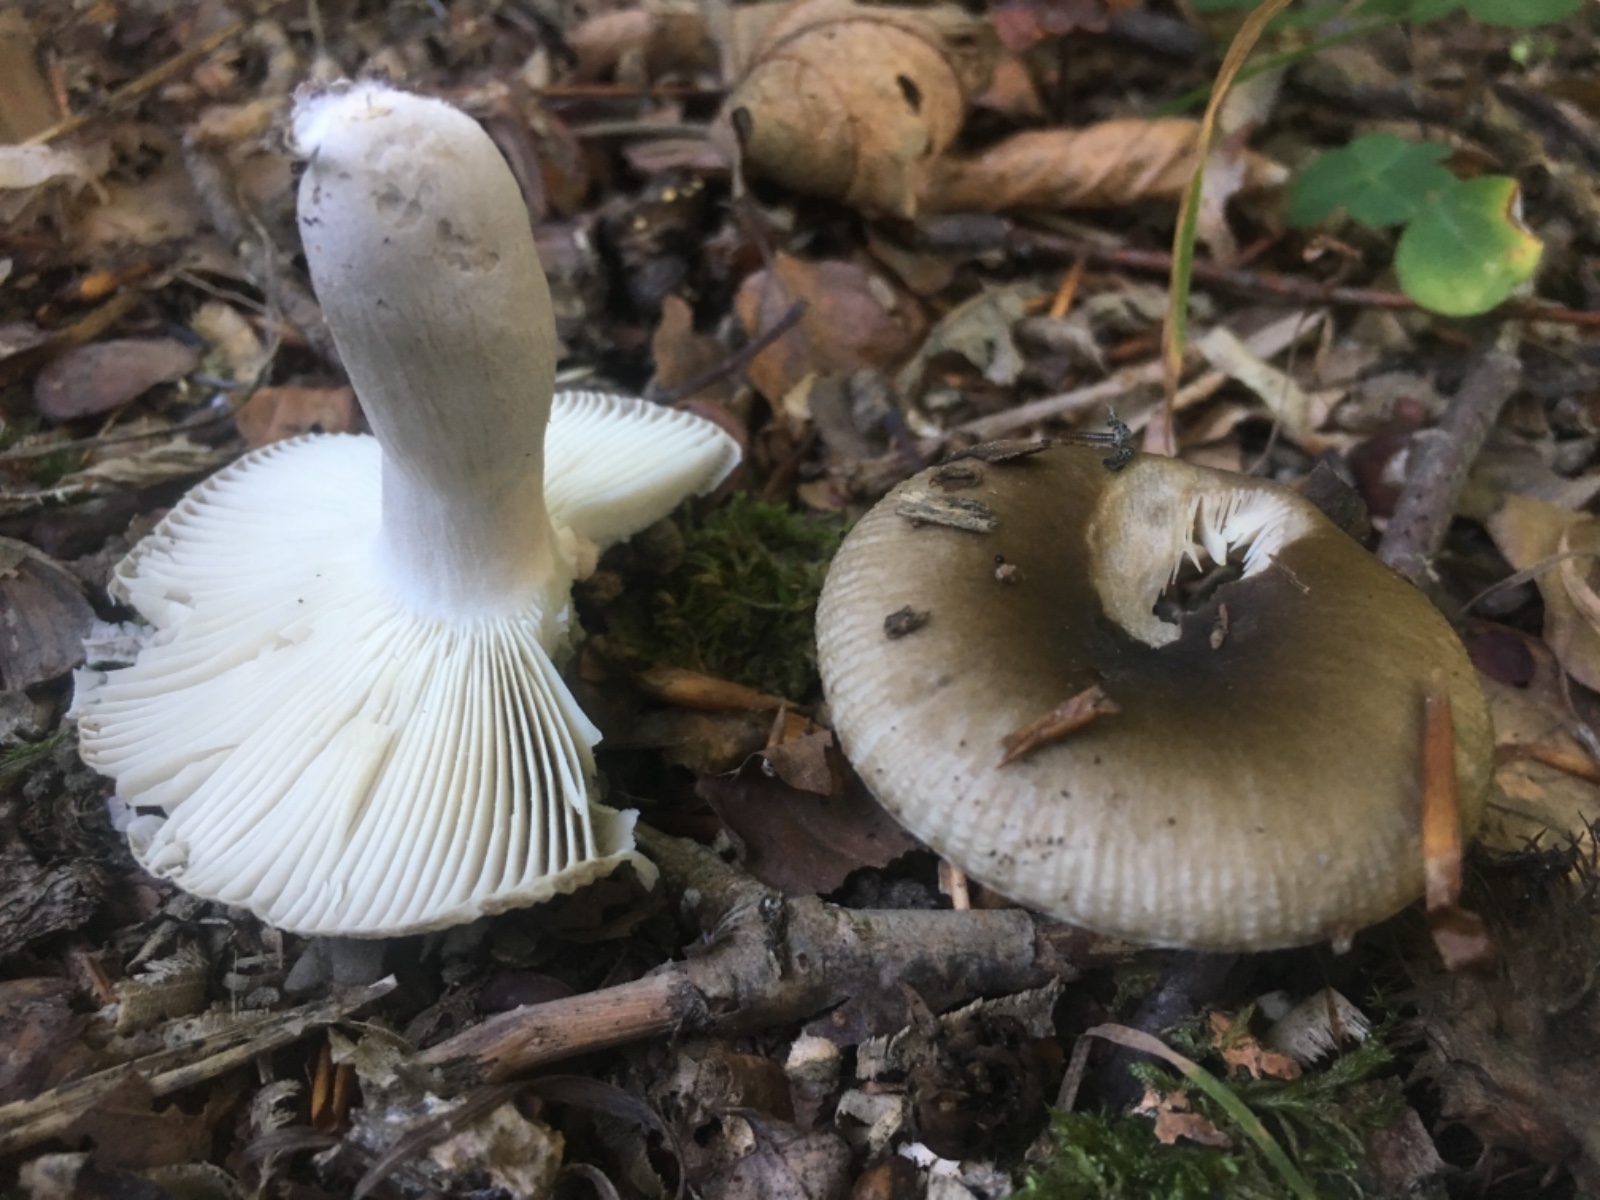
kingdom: Fungi
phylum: Basidiomycota
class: Agaricomycetes
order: Russulales
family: Russulaceae
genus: Russula
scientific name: Russula amoenolens
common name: skarp kam-skørhat
